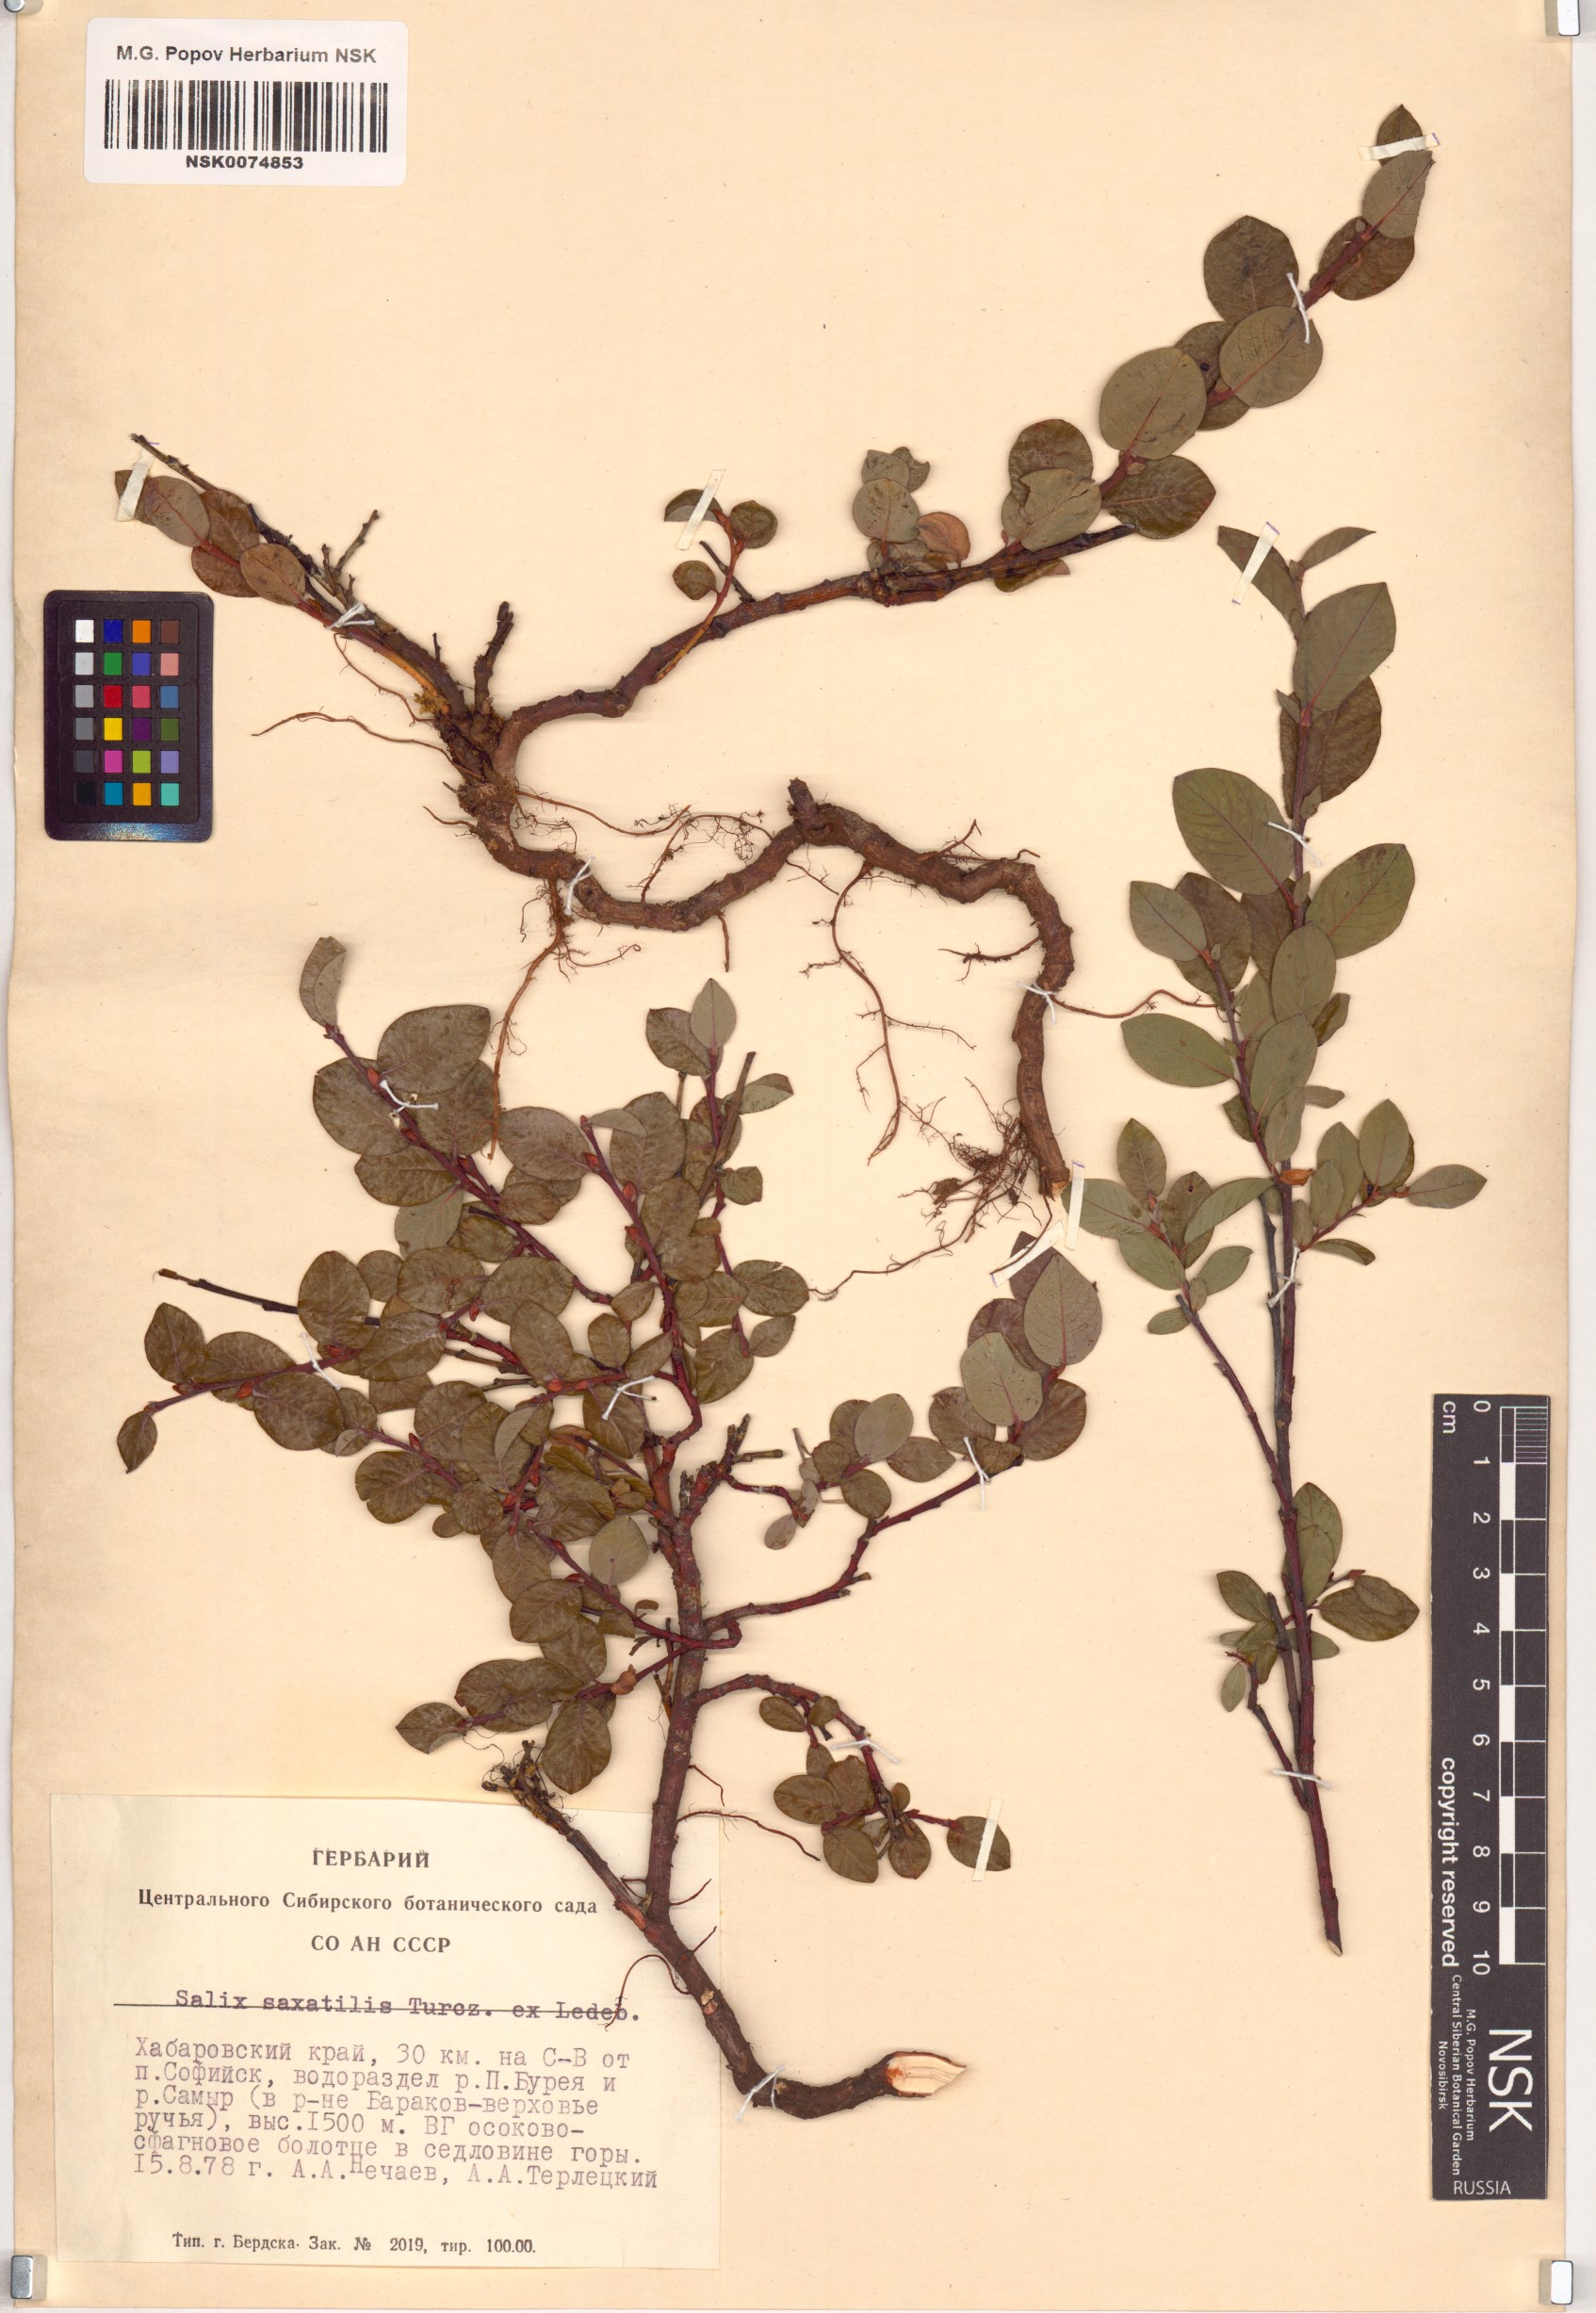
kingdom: Plantae
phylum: Tracheophyta
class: Magnoliopsida
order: Malpighiales
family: Salicaceae
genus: Salix
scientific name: Salix saxatilis
